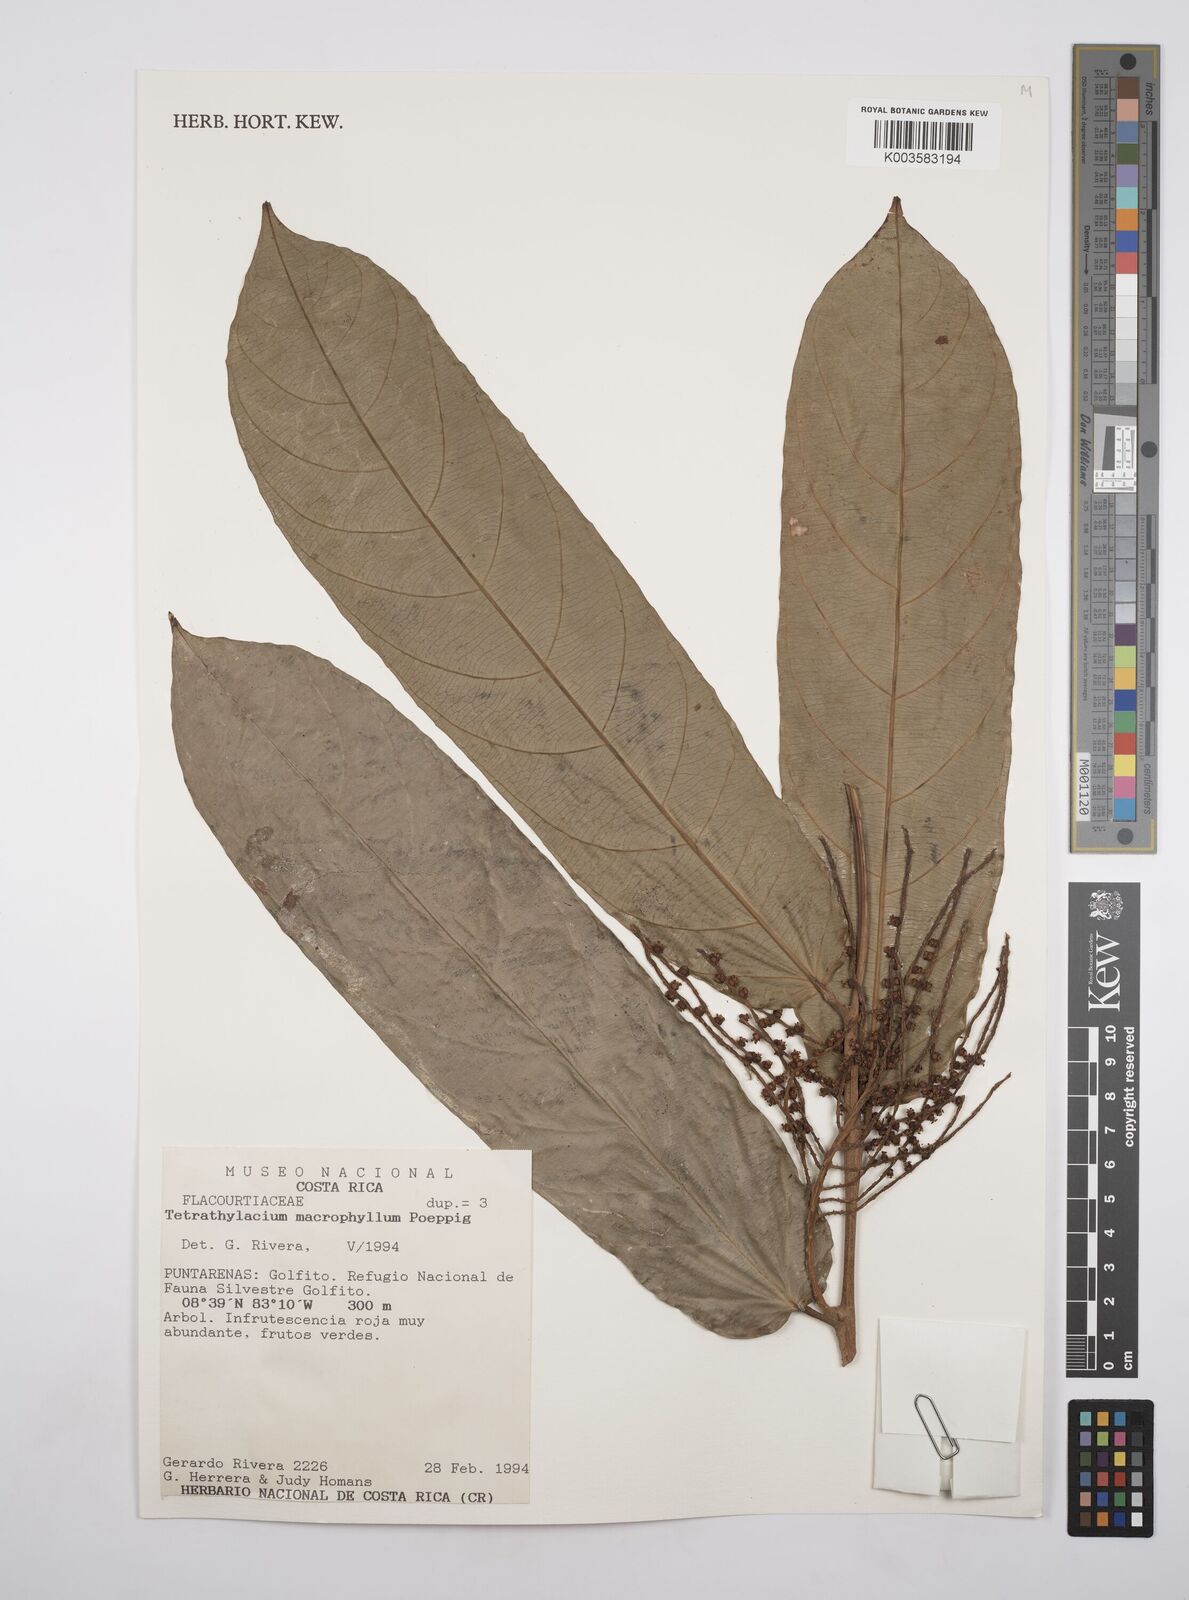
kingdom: Plantae
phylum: Tracheophyta
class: Magnoliopsida
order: Malpighiales
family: Salicaceae
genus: Tetrathylacium
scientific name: Tetrathylacium macrophyllum
